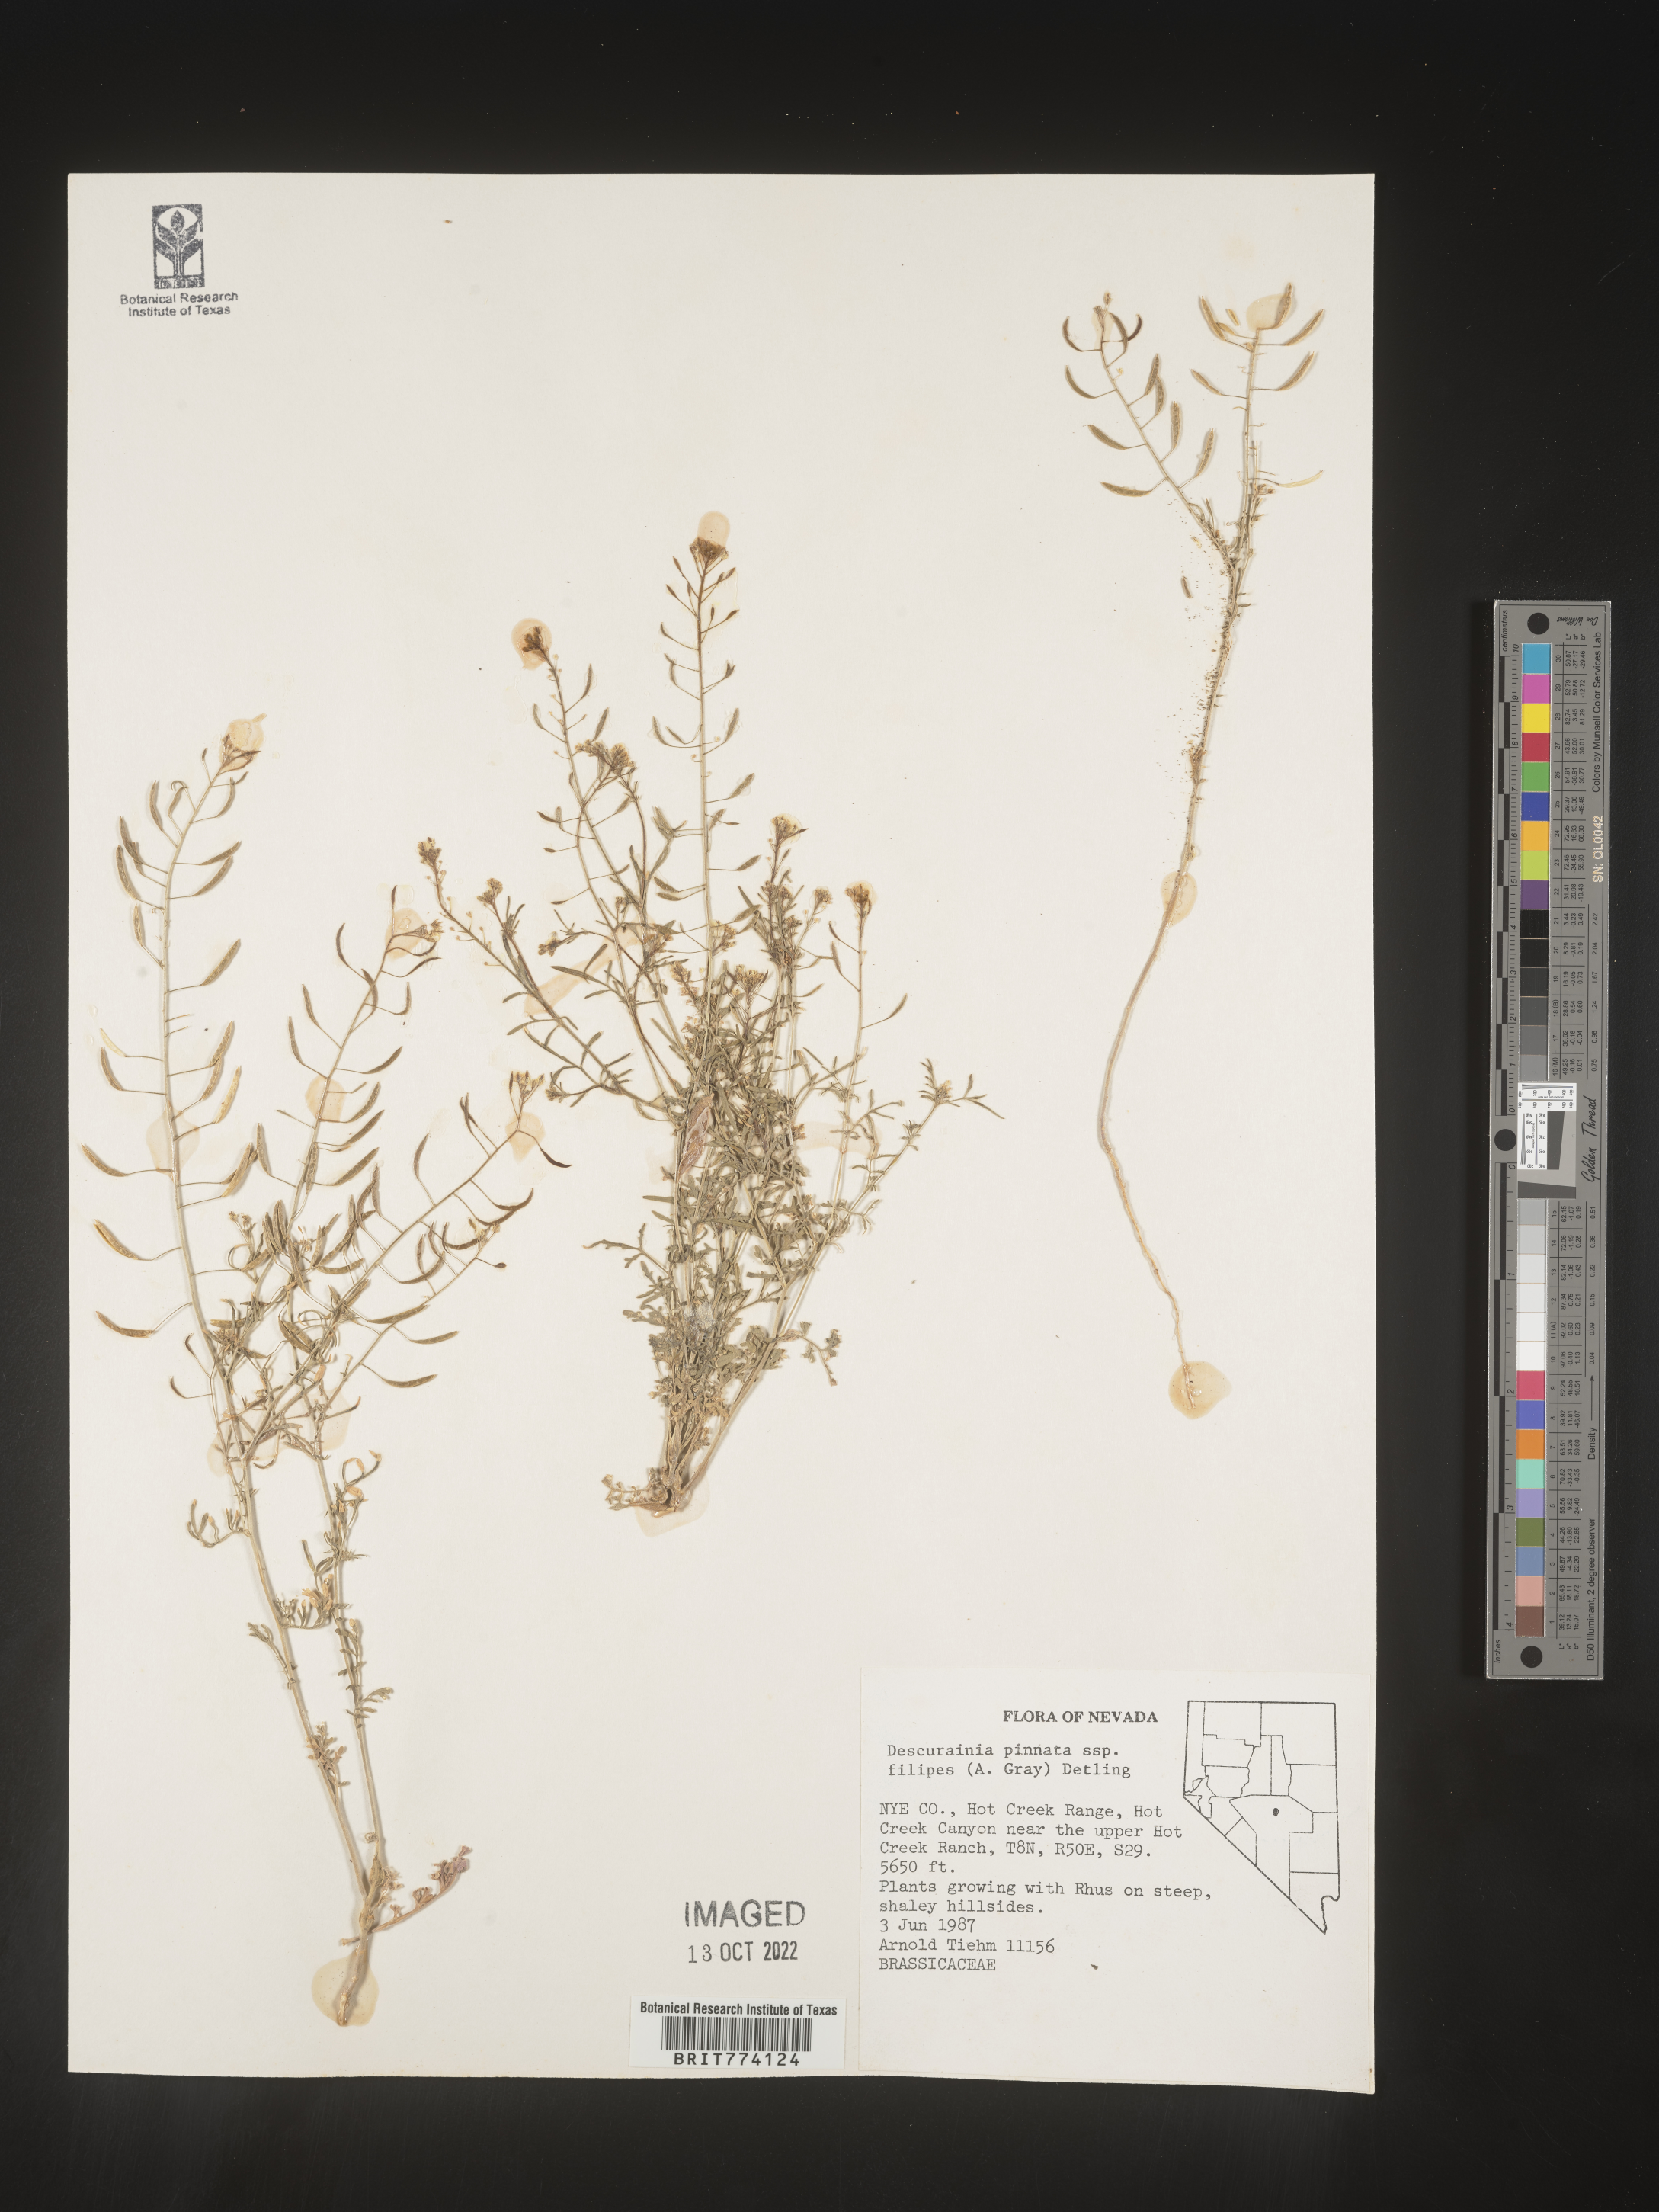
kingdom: Plantae
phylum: Tracheophyta
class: Magnoliopsida
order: Brassicales
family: Brassicaceae
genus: Descurainia
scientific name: Descurainia longipedicellata
